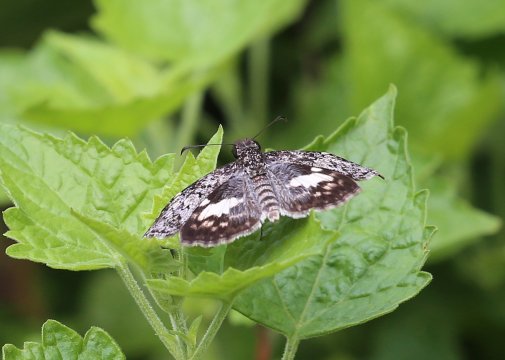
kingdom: Animalia
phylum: Arthropoda
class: Insecta
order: Lepidoptera
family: Hesperiidae
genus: Chiomara
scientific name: Chiomara asychis
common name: White-patched Skipper
